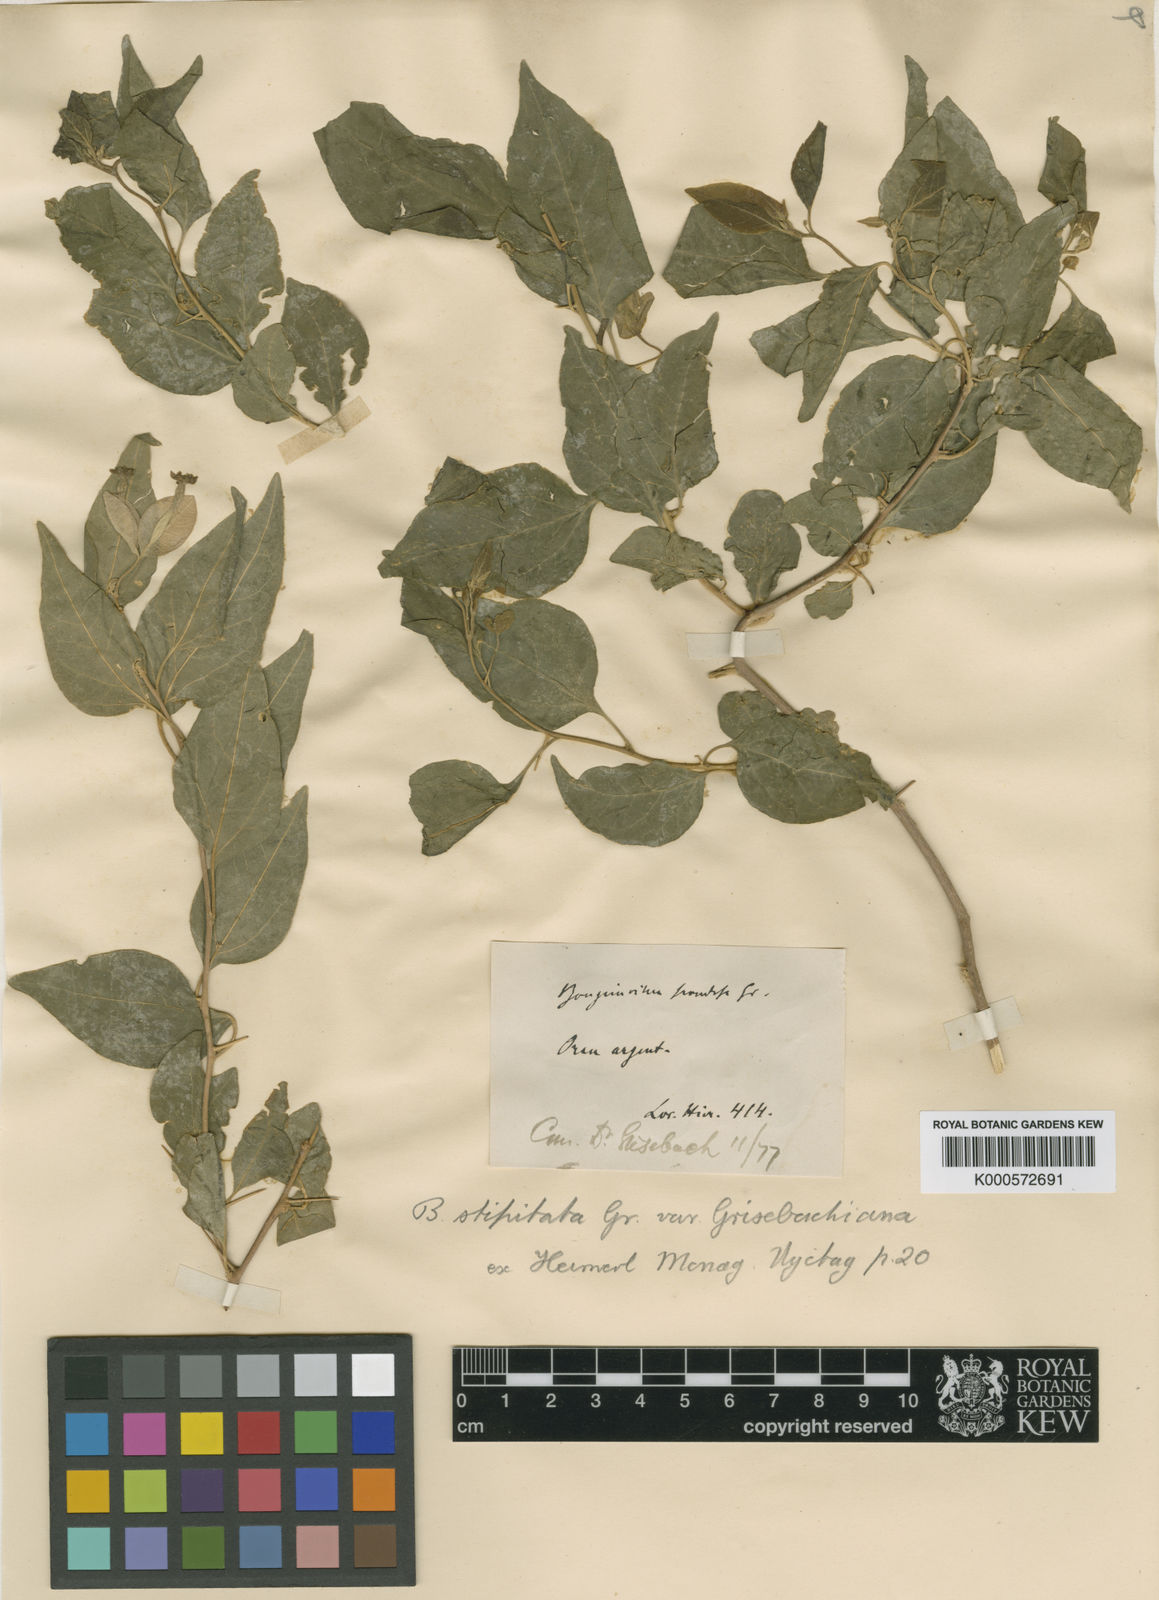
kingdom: Plantae
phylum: Tracheophyta
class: Magnoliopsida
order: Caryophyllales
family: Nyctaginaceae
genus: Bougainvillea
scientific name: Bougainvillea stipitata
